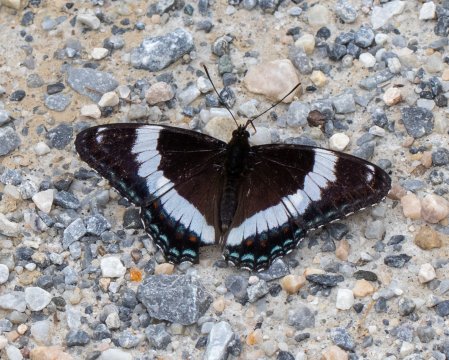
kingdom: Animalia
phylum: Arthropoda
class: Insecta
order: Lepidoptera
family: Nymphalidae
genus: Limenitis
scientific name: Limenitis arthemis
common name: Red-spotted Admiral
